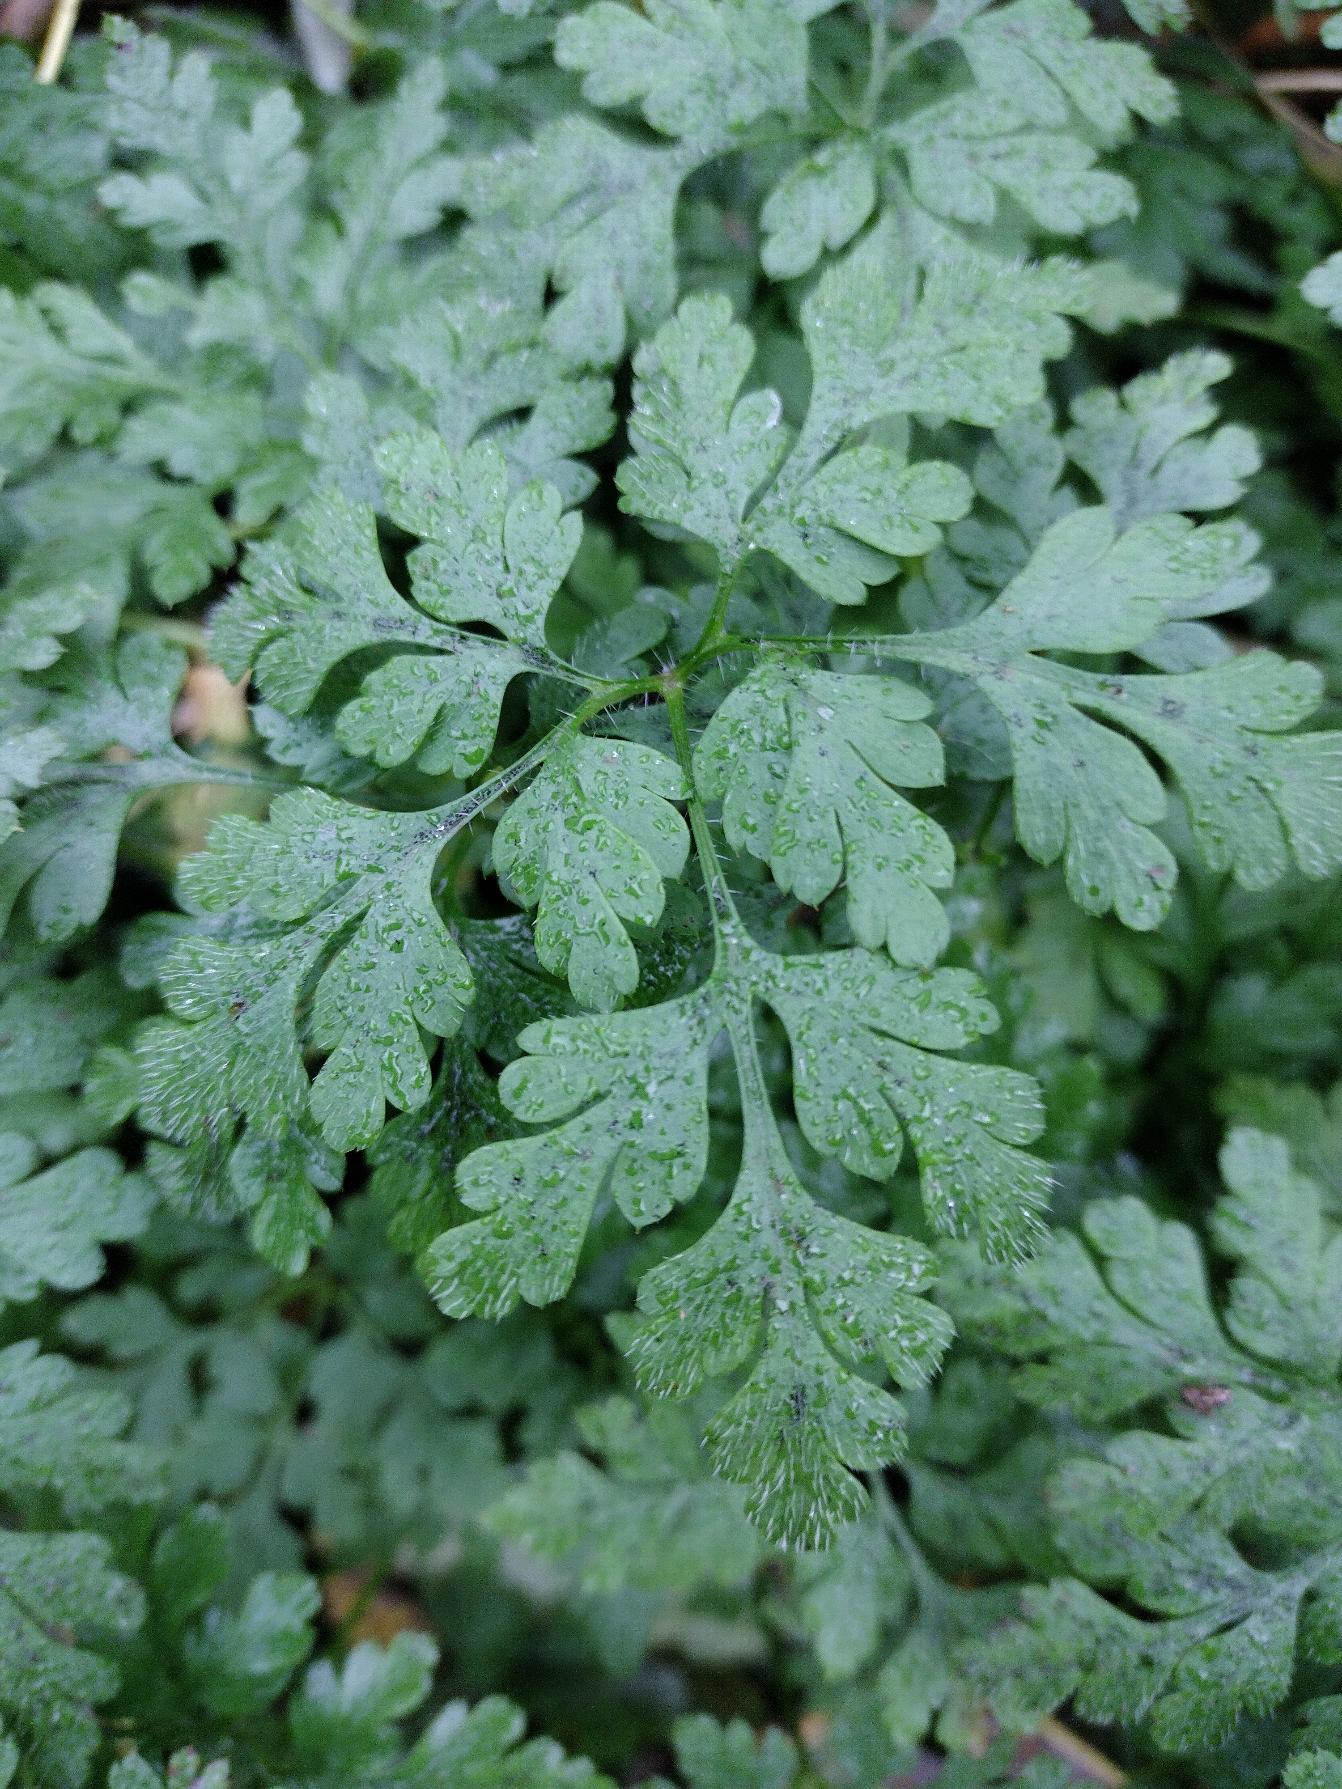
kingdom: Plantae
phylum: Tracheophyta
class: Magnoliopsida
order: Geraniales
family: Geraniaceae
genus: Geranium
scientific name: Geranium robertianum
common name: Stinkende storkenæb
